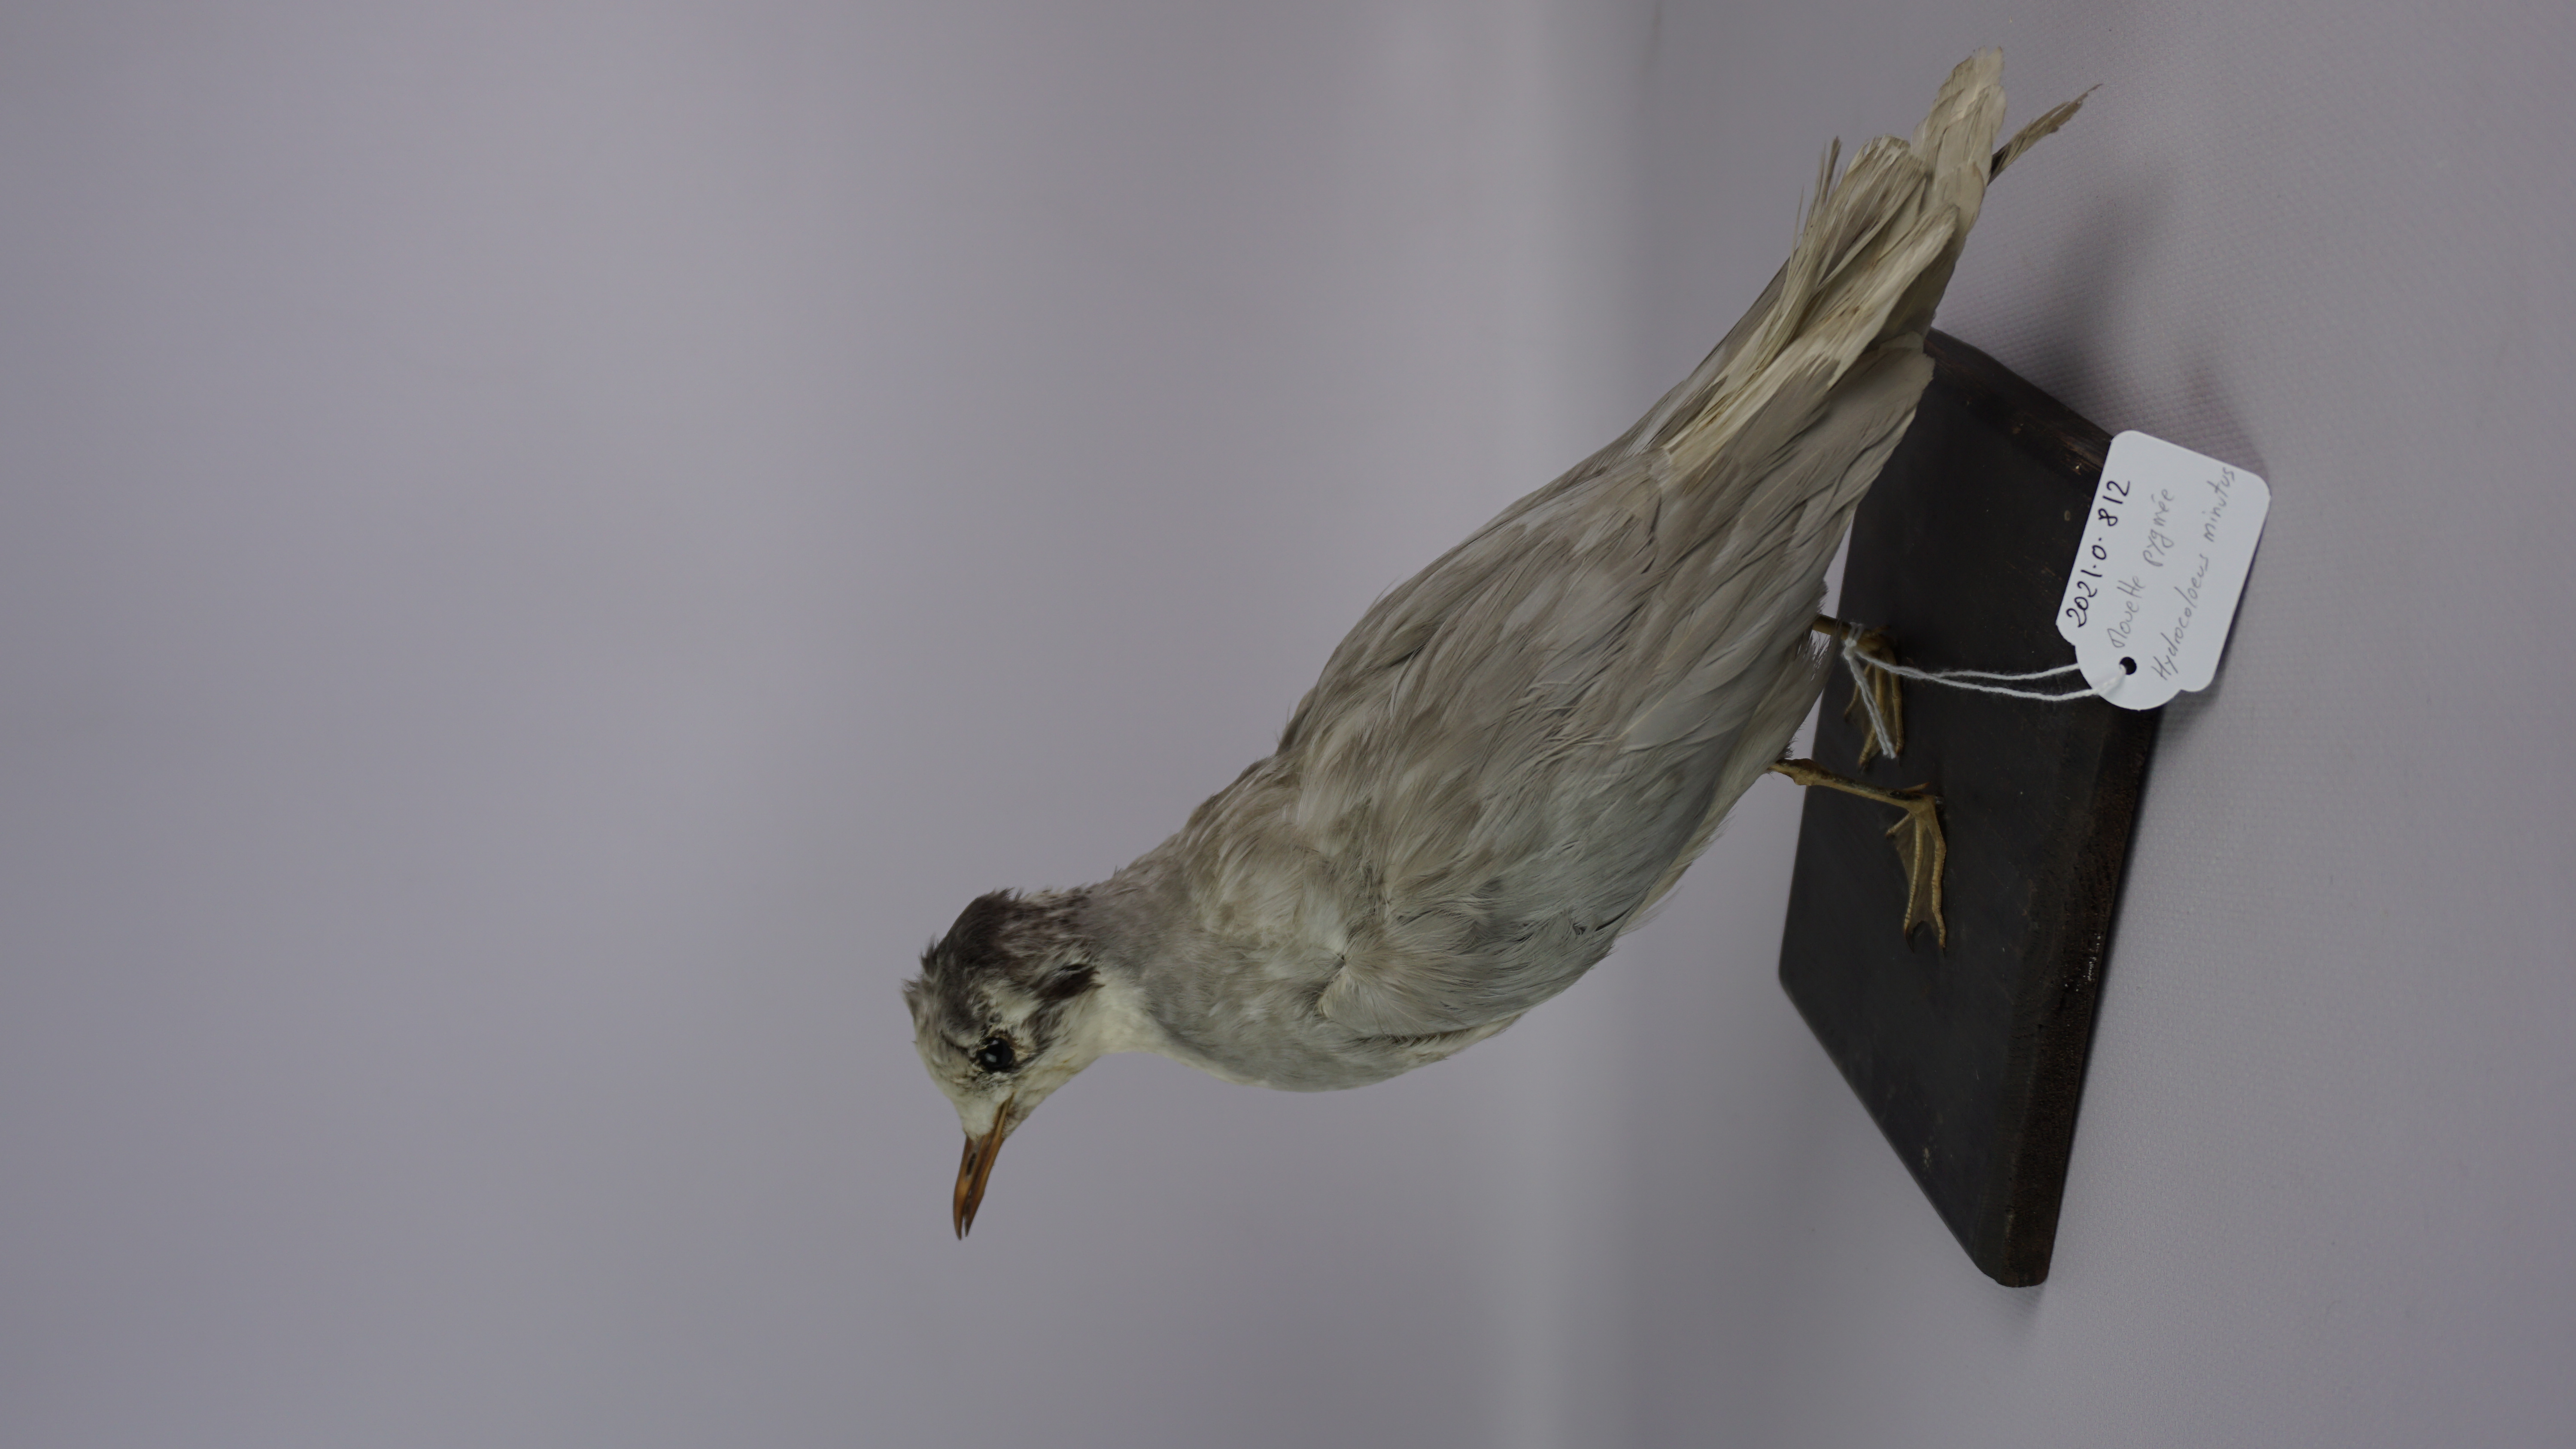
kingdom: Animalia
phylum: Chordata
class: Aves
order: Charadriiformes
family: Laridae
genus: Hydrocoloeus
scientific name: Hydrocoloeus minutus
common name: Little gull
